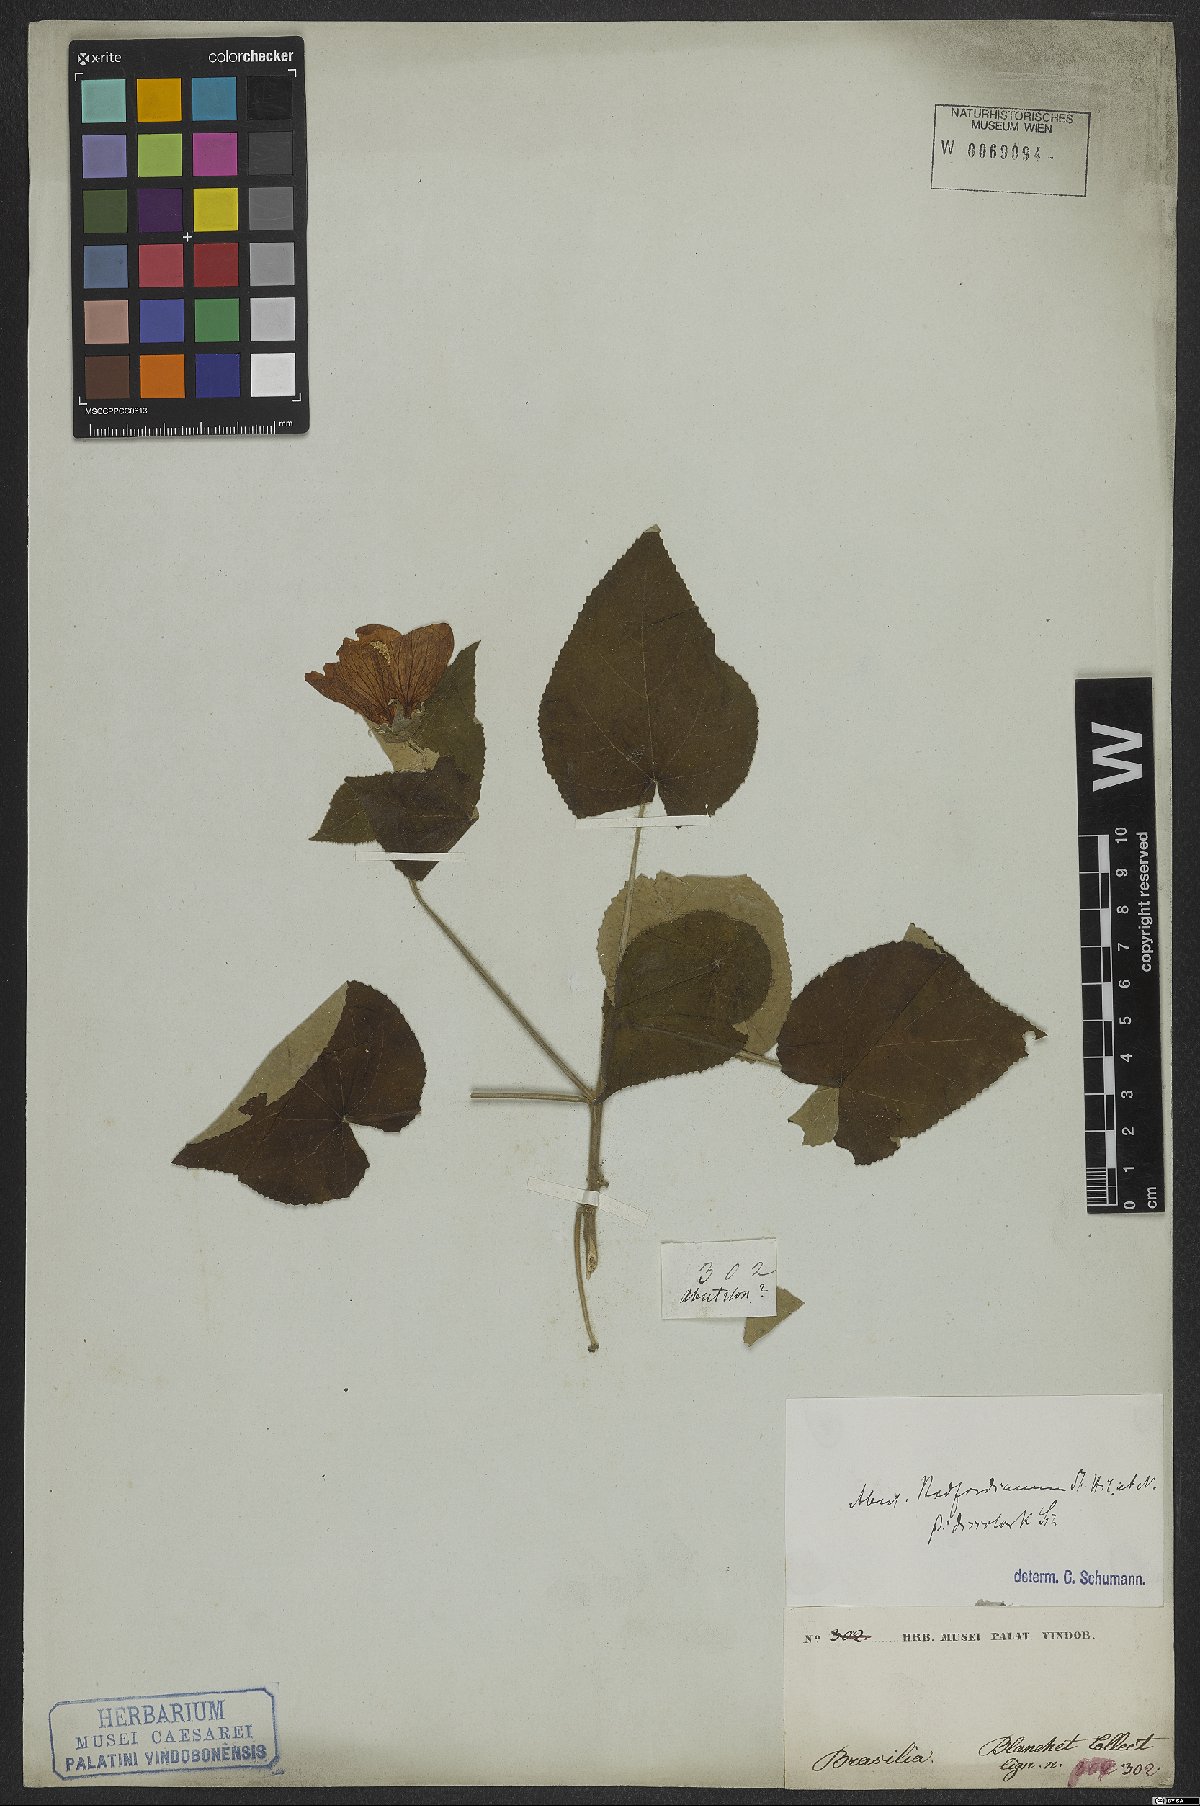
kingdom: Plantae
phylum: Tracheophyta
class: Magnoliopsida
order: Malvales
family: Malvaceae
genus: Callianthe
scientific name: Callianthe bedfordiana
